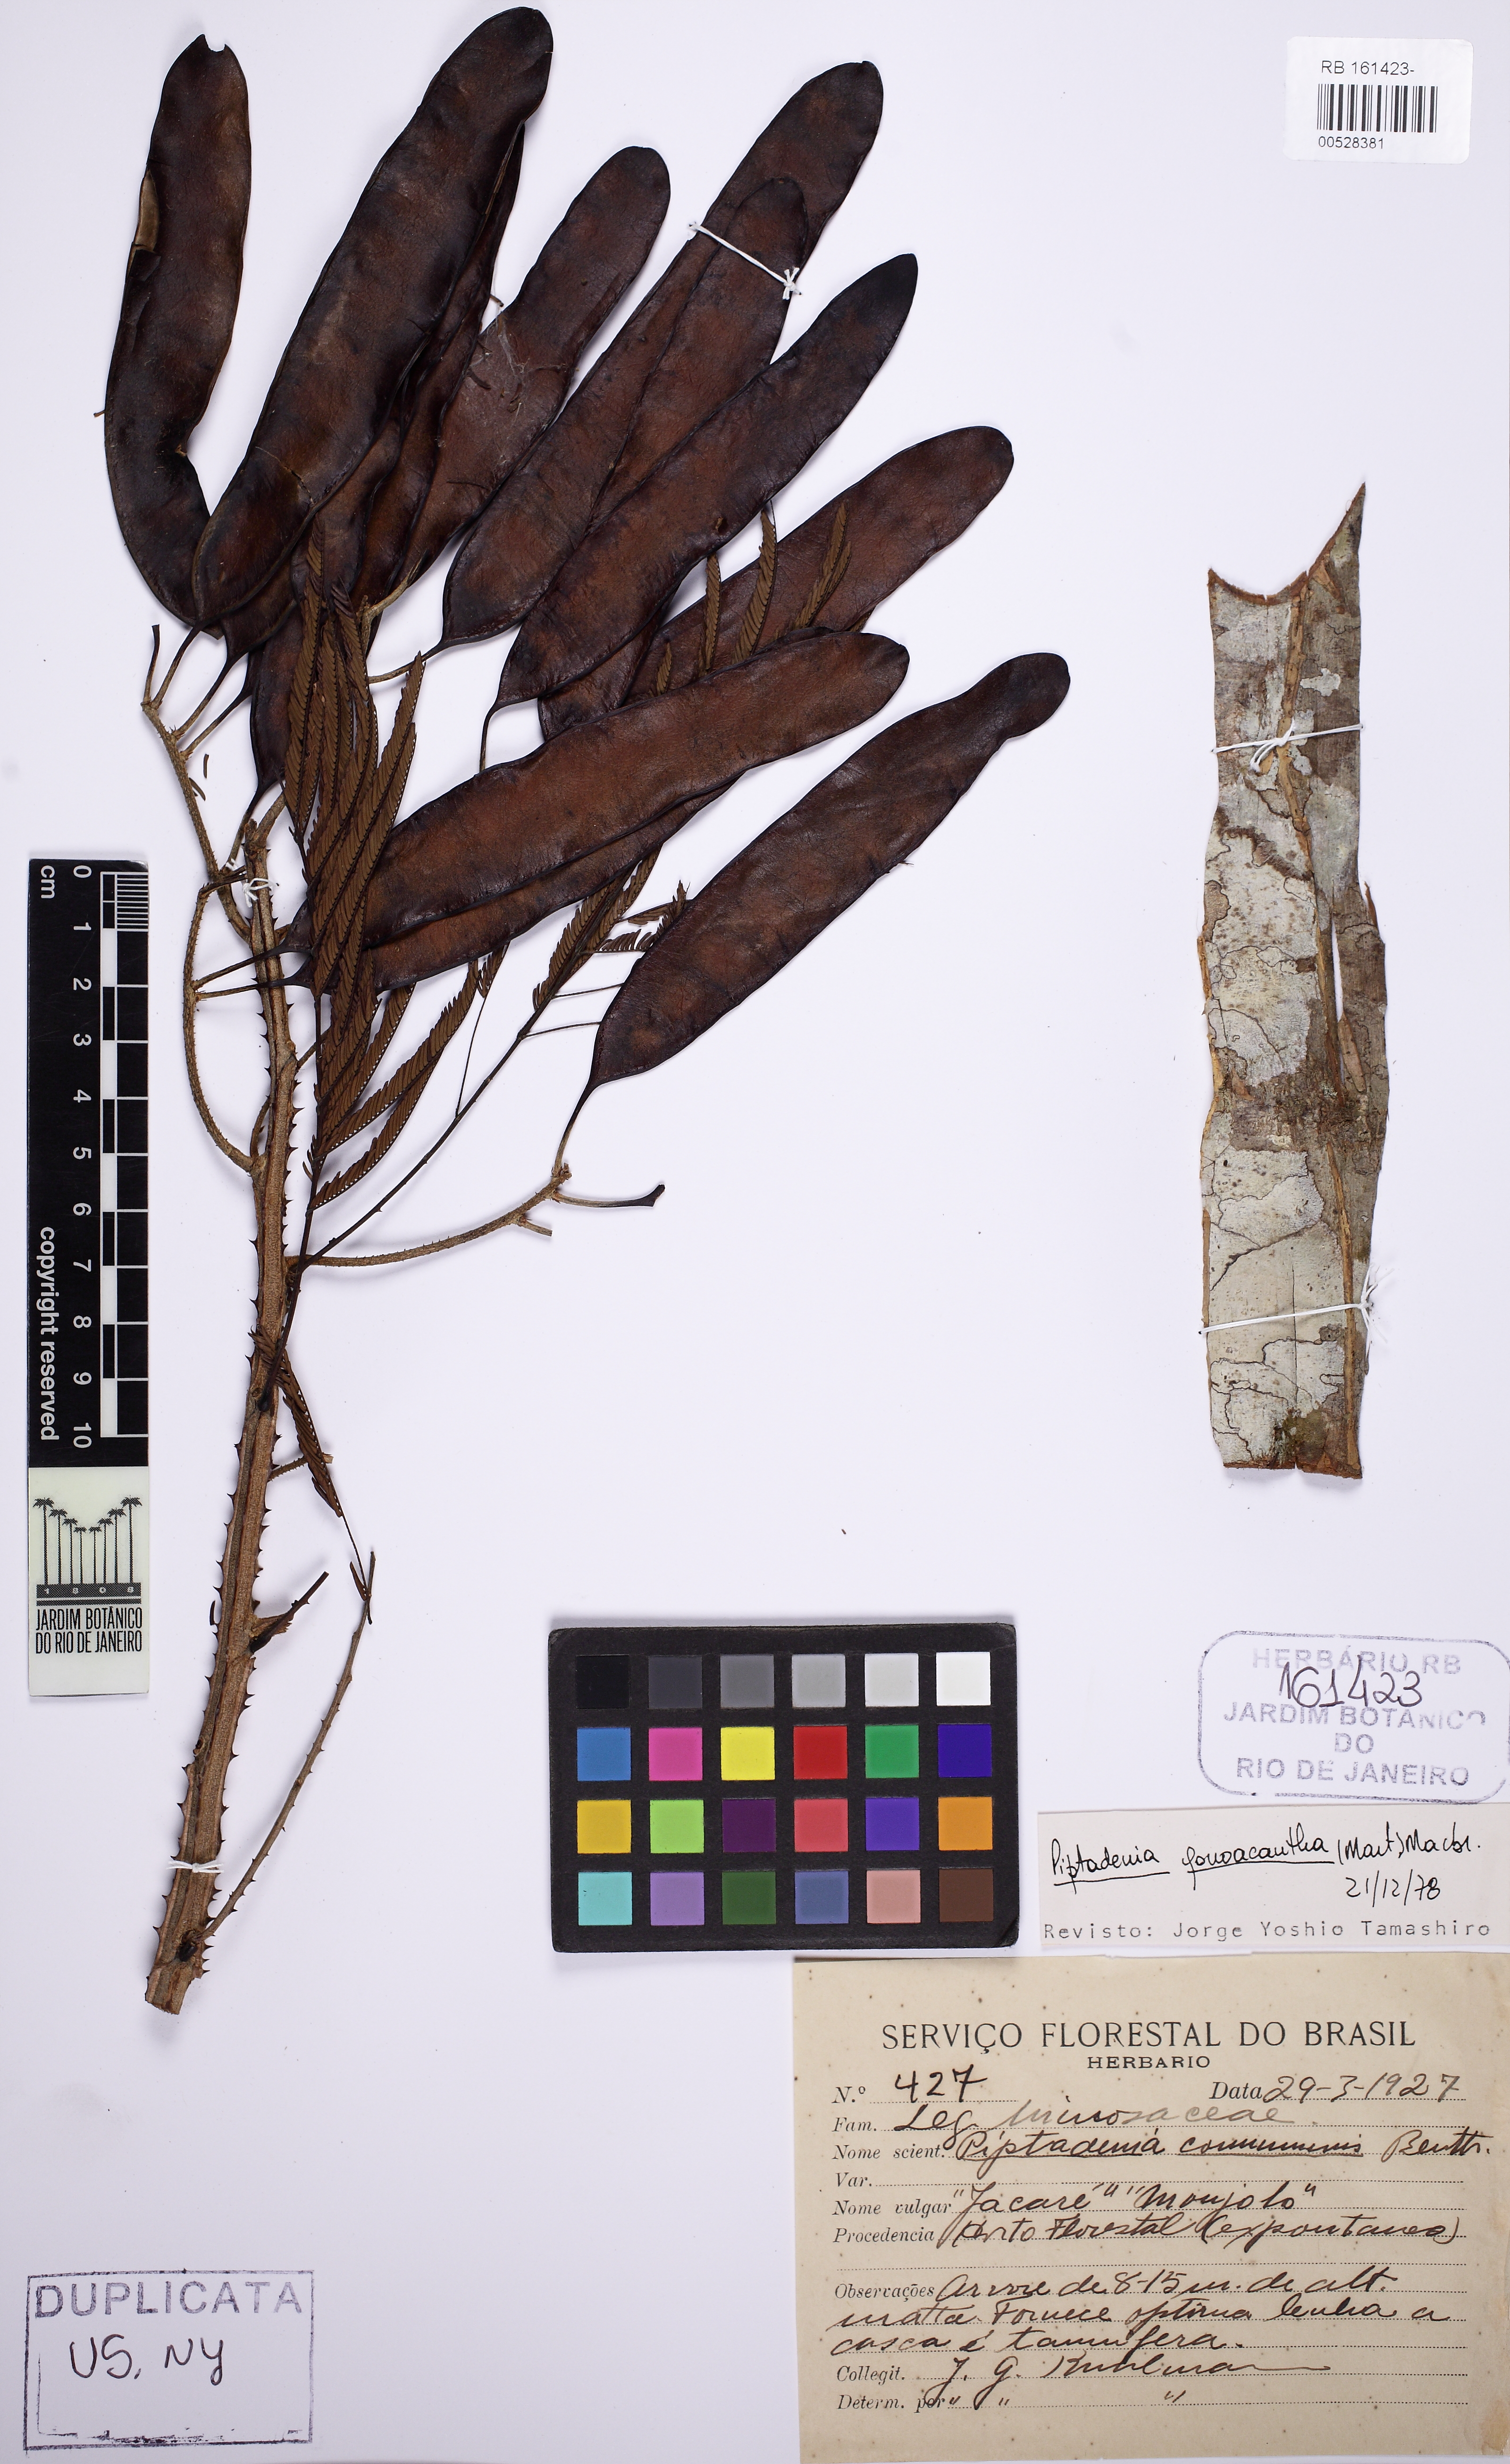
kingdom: Plantae
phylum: Tracheophyta
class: Magnoliopsida
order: Fabales
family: Fabaceae
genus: Piptadenia
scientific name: Piptadenia gonoacantha
